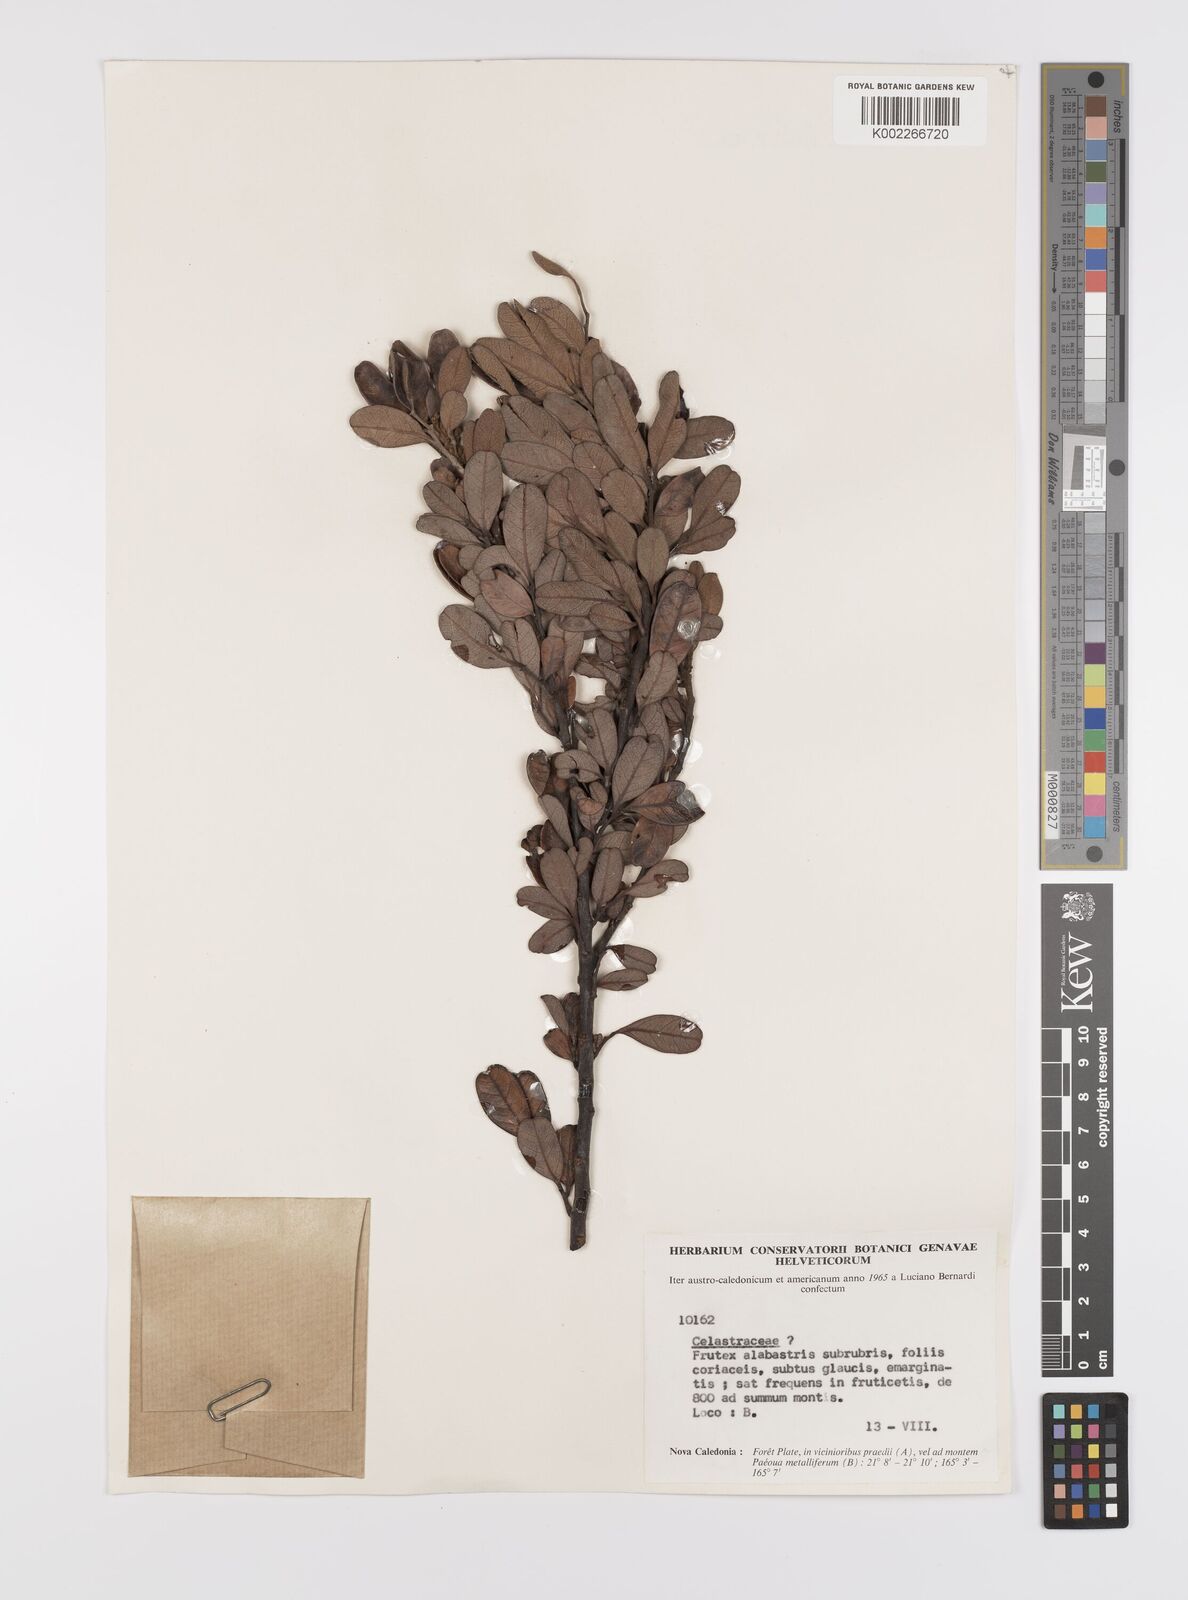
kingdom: Plantae
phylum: Tracheophyta
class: Magnoliopsida
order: Celastrales
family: Celastraceae
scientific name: Celastraceae
